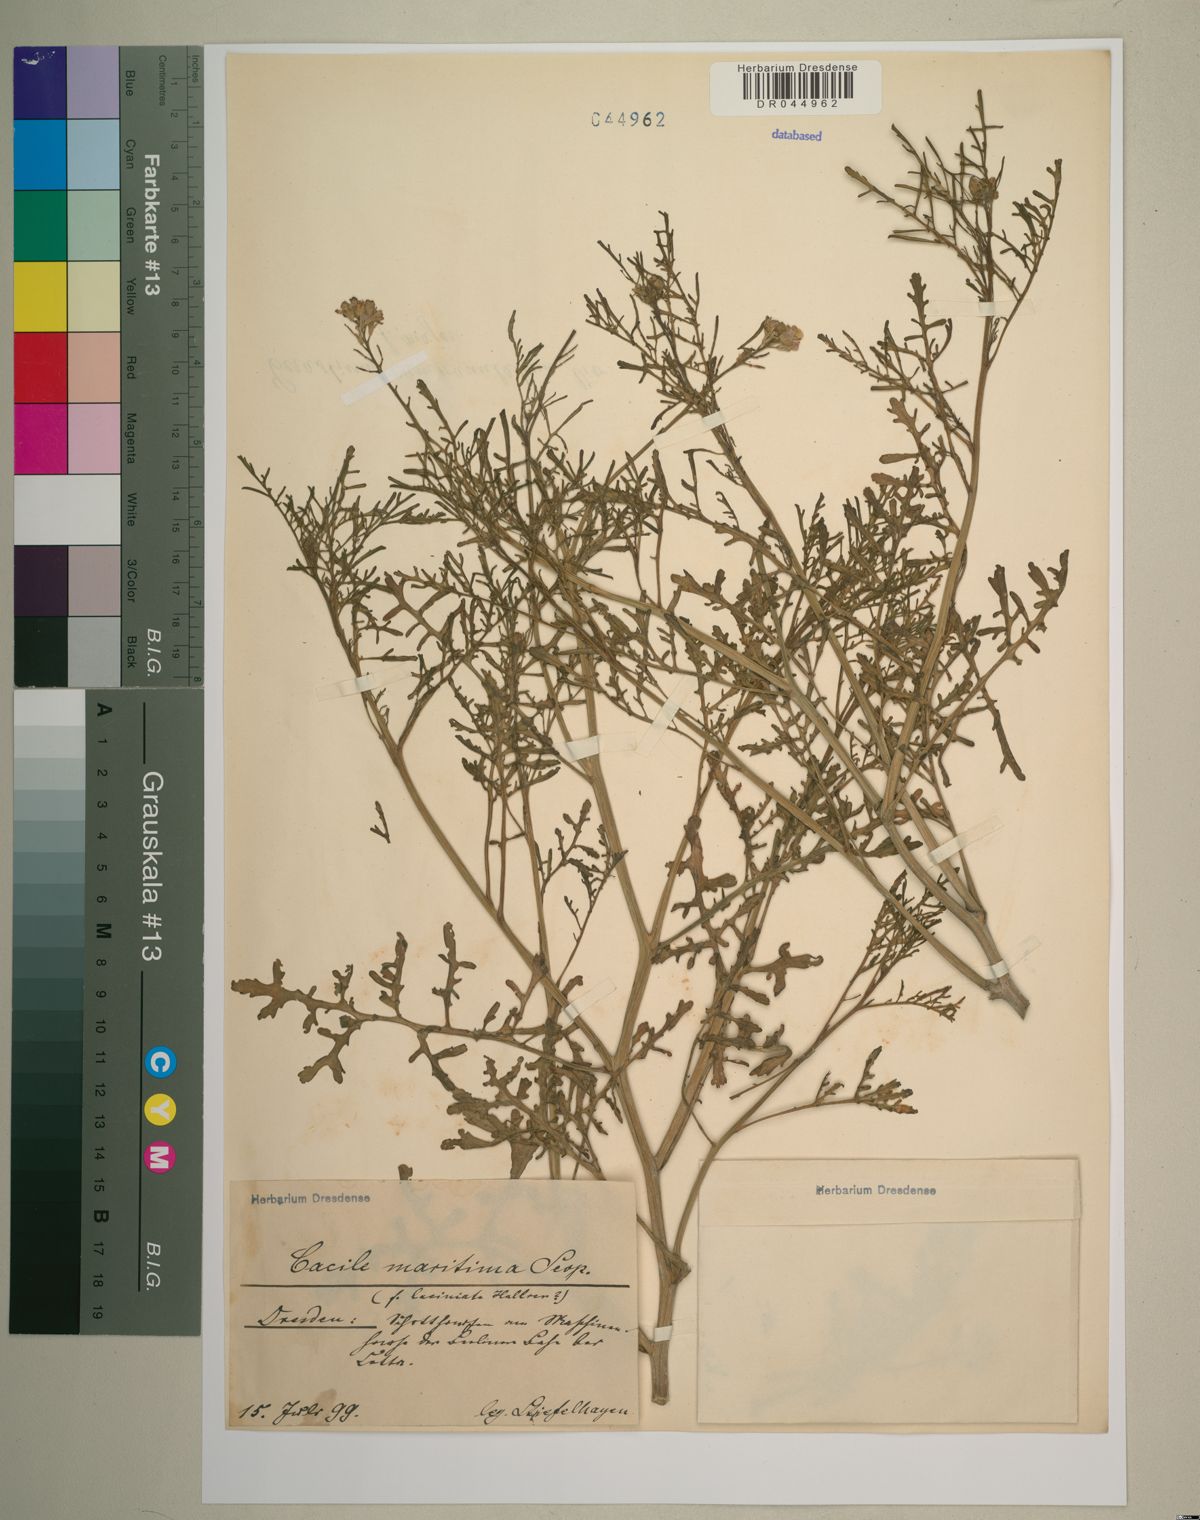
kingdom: Plantae
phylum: Tracheophyta
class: Magnoliopsida
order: Brassicales
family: Brassicaceae
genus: Cakile
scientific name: Cakile maritima
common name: Sea rocket
